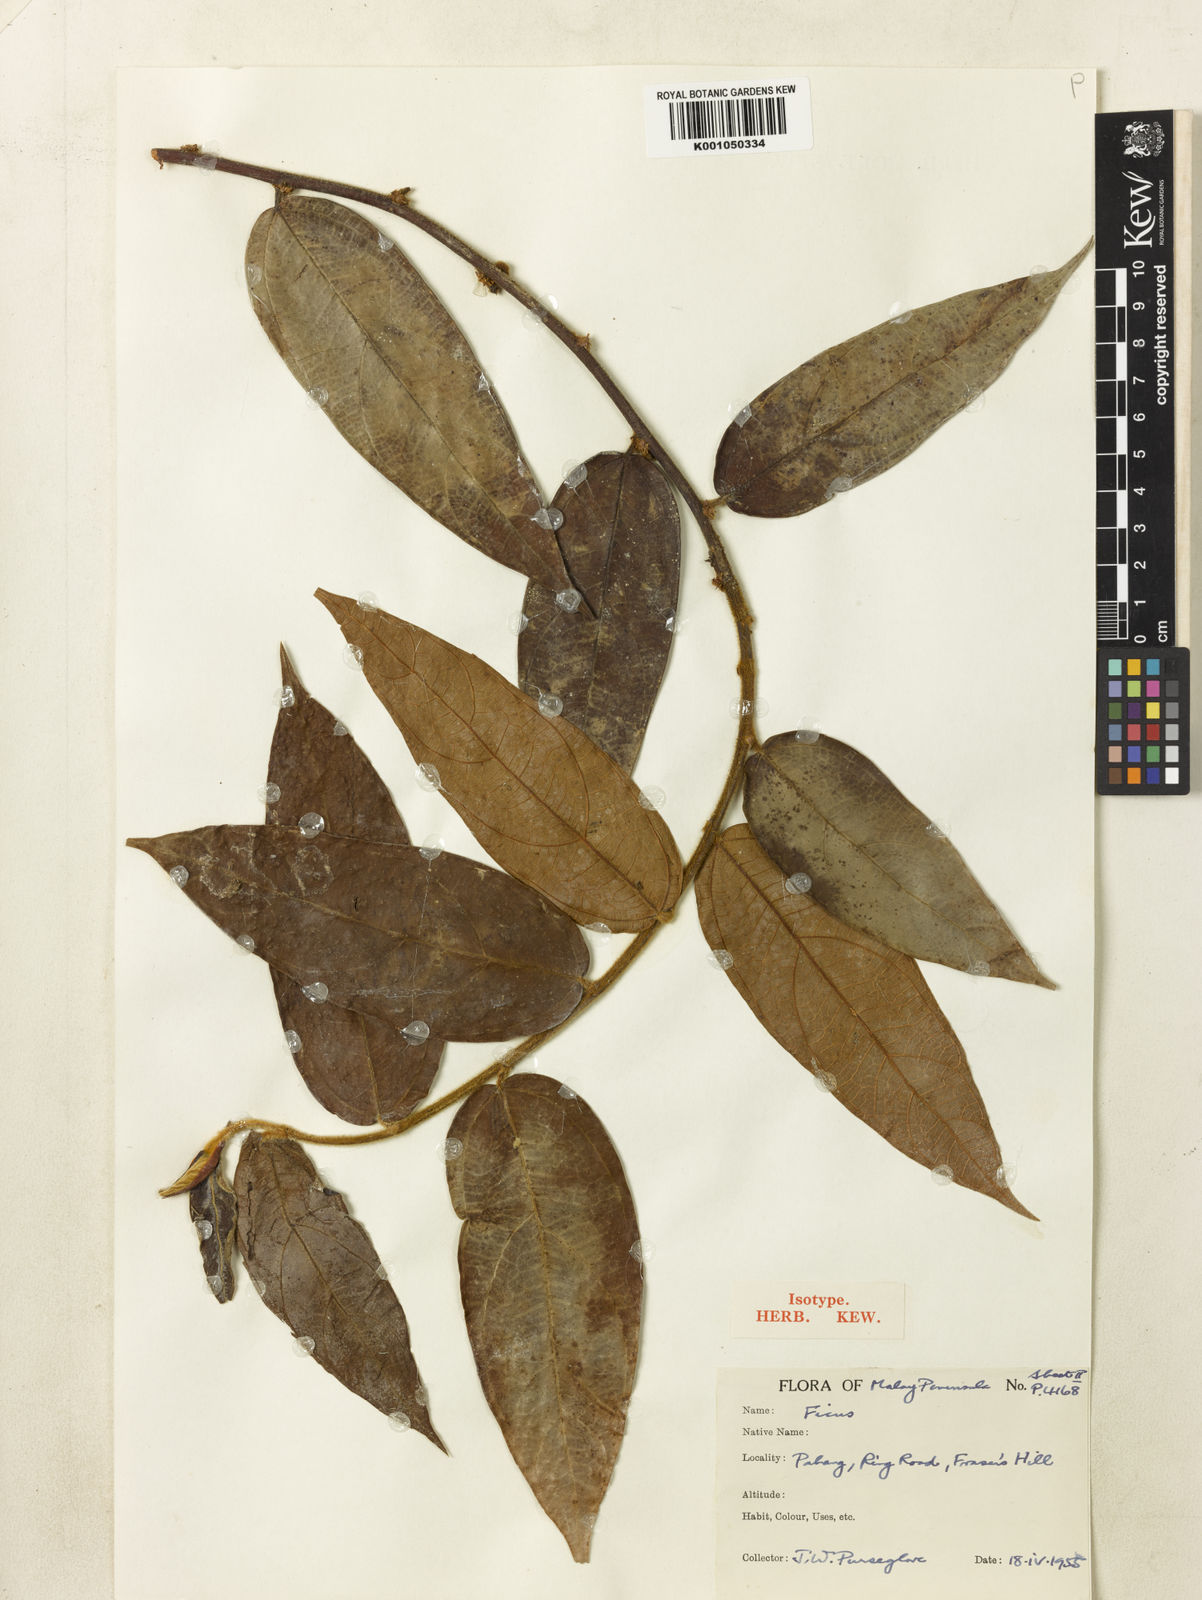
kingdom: Plantae
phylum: Tracheophyta
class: Magnoliopsida
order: Rosales
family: Moraceae
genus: Ficus
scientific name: Ficus pendens
